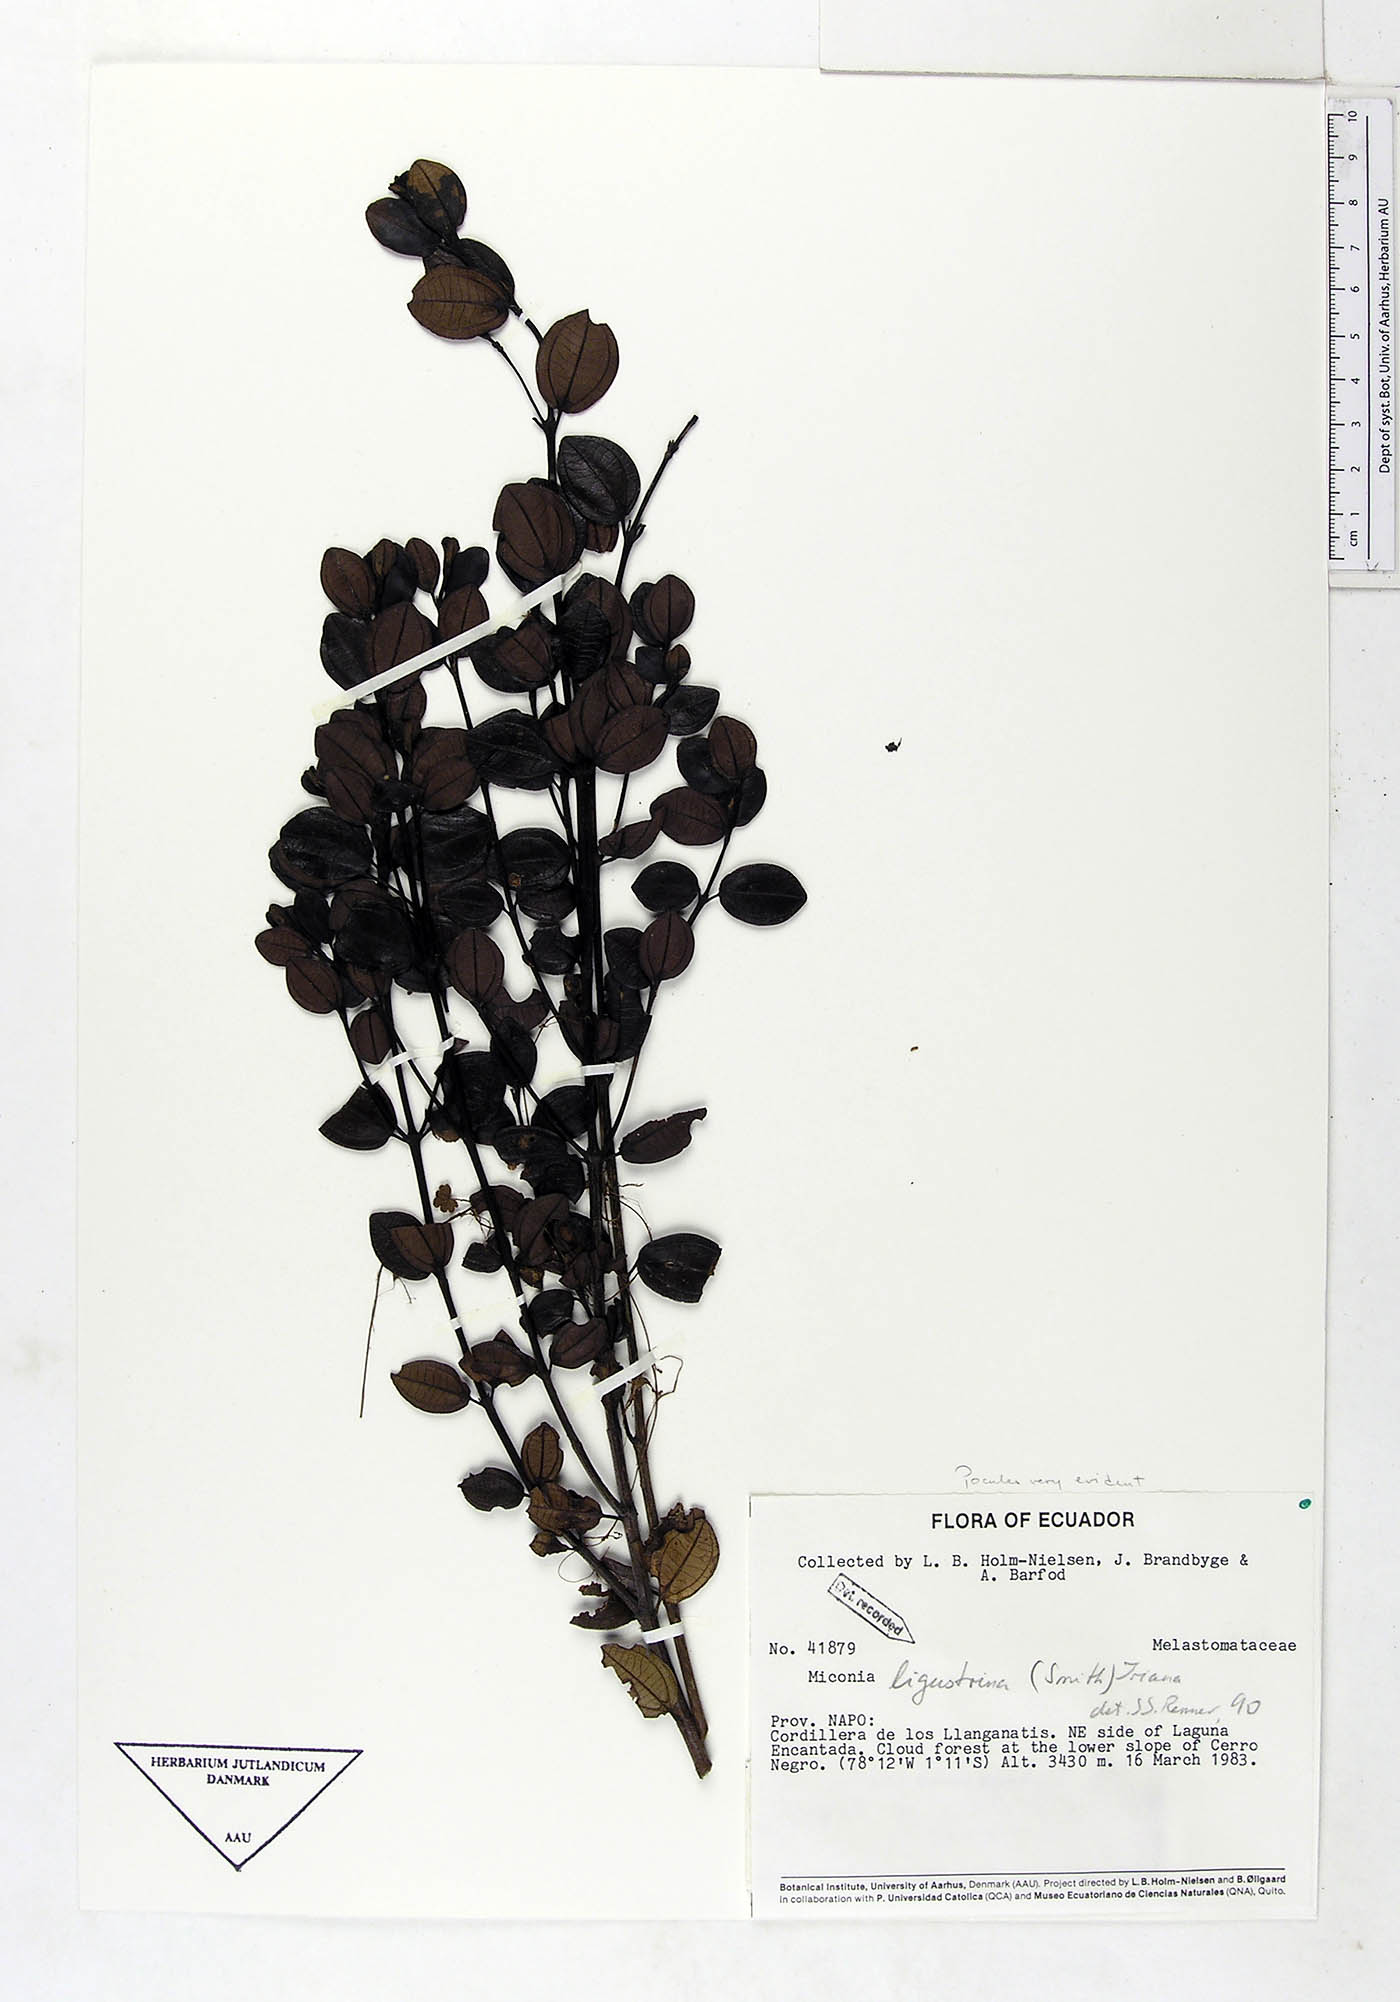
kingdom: Plantae
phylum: Tracheophyta
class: Magnoliopsida
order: Myrtales
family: Melastomataceae
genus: Miconia
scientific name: Miconia ligustrina
